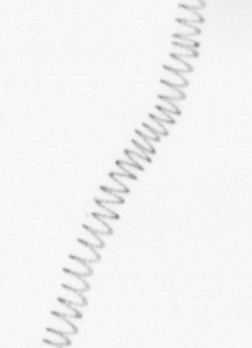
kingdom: Chromista
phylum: Ochrophyta
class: Bacillariophyceae
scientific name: Bacillariophyceae
